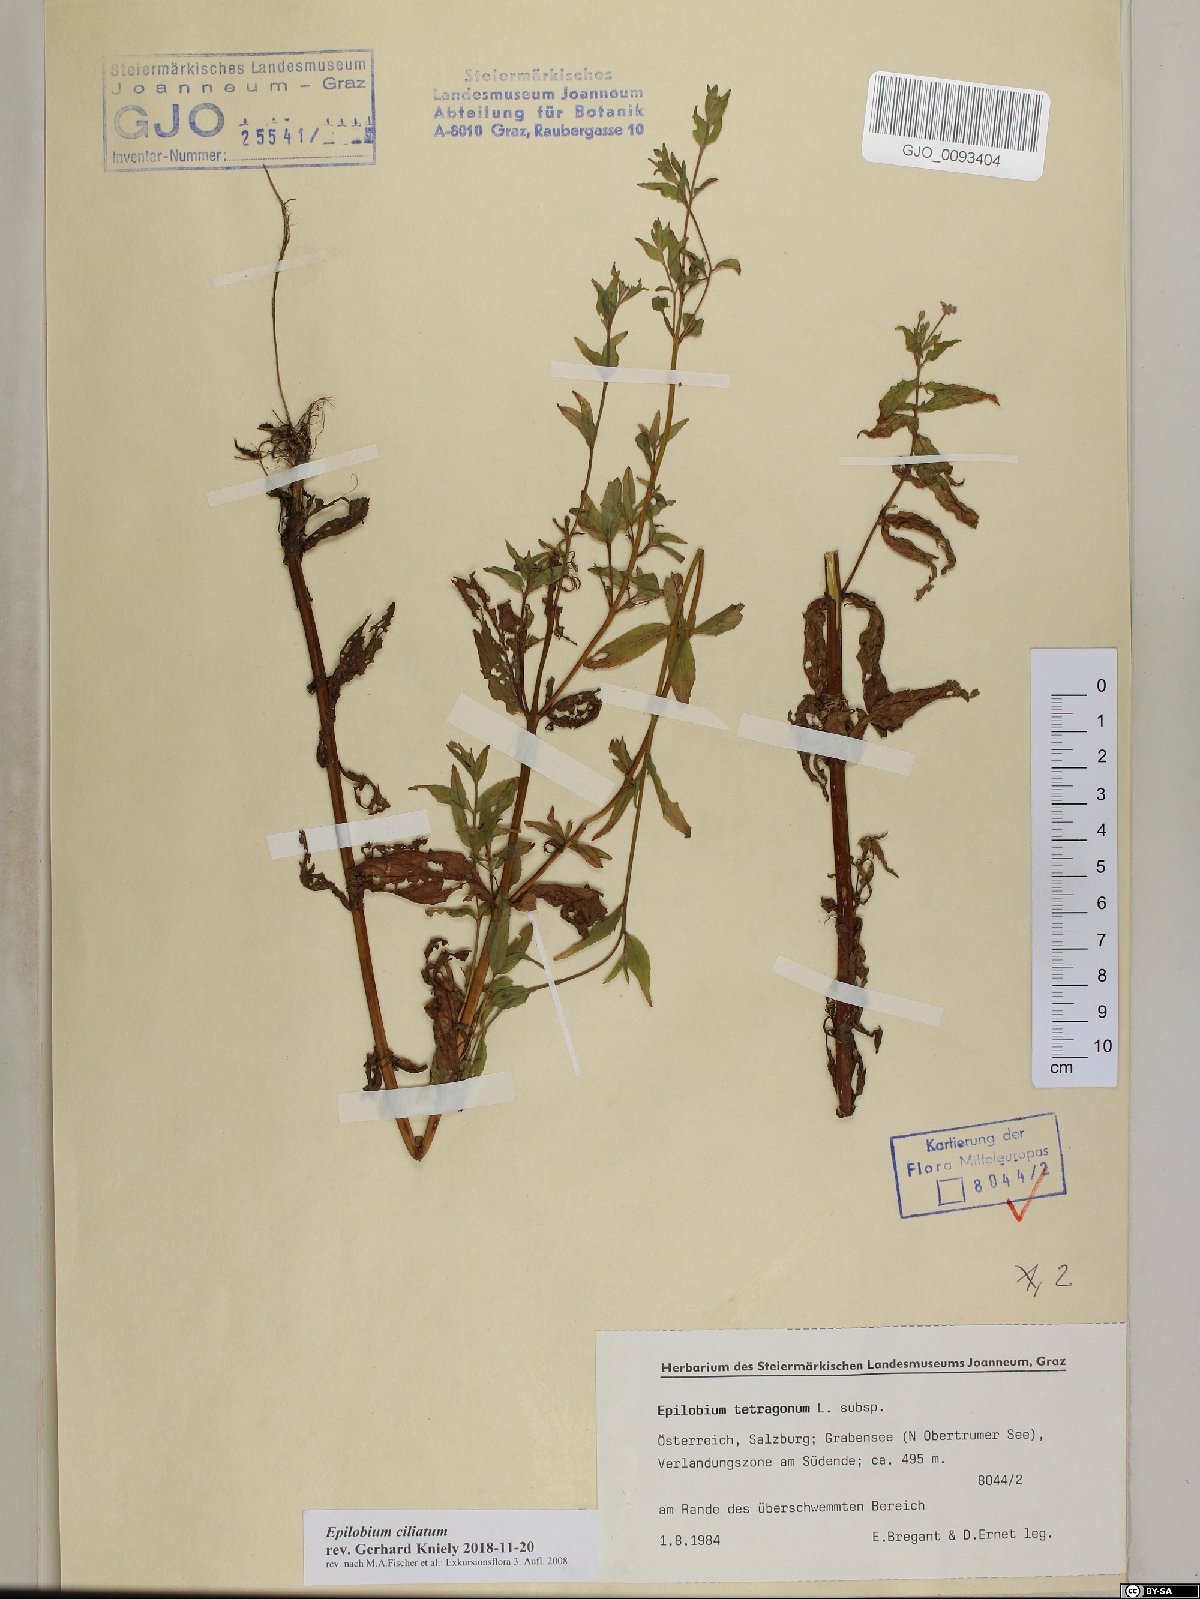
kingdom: Plantae
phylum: Tracheophyta
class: Magnoliopsida
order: Myrtales
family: Onagraceae
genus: Epilobium
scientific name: Epilobium ciliatum
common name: American willowherb
